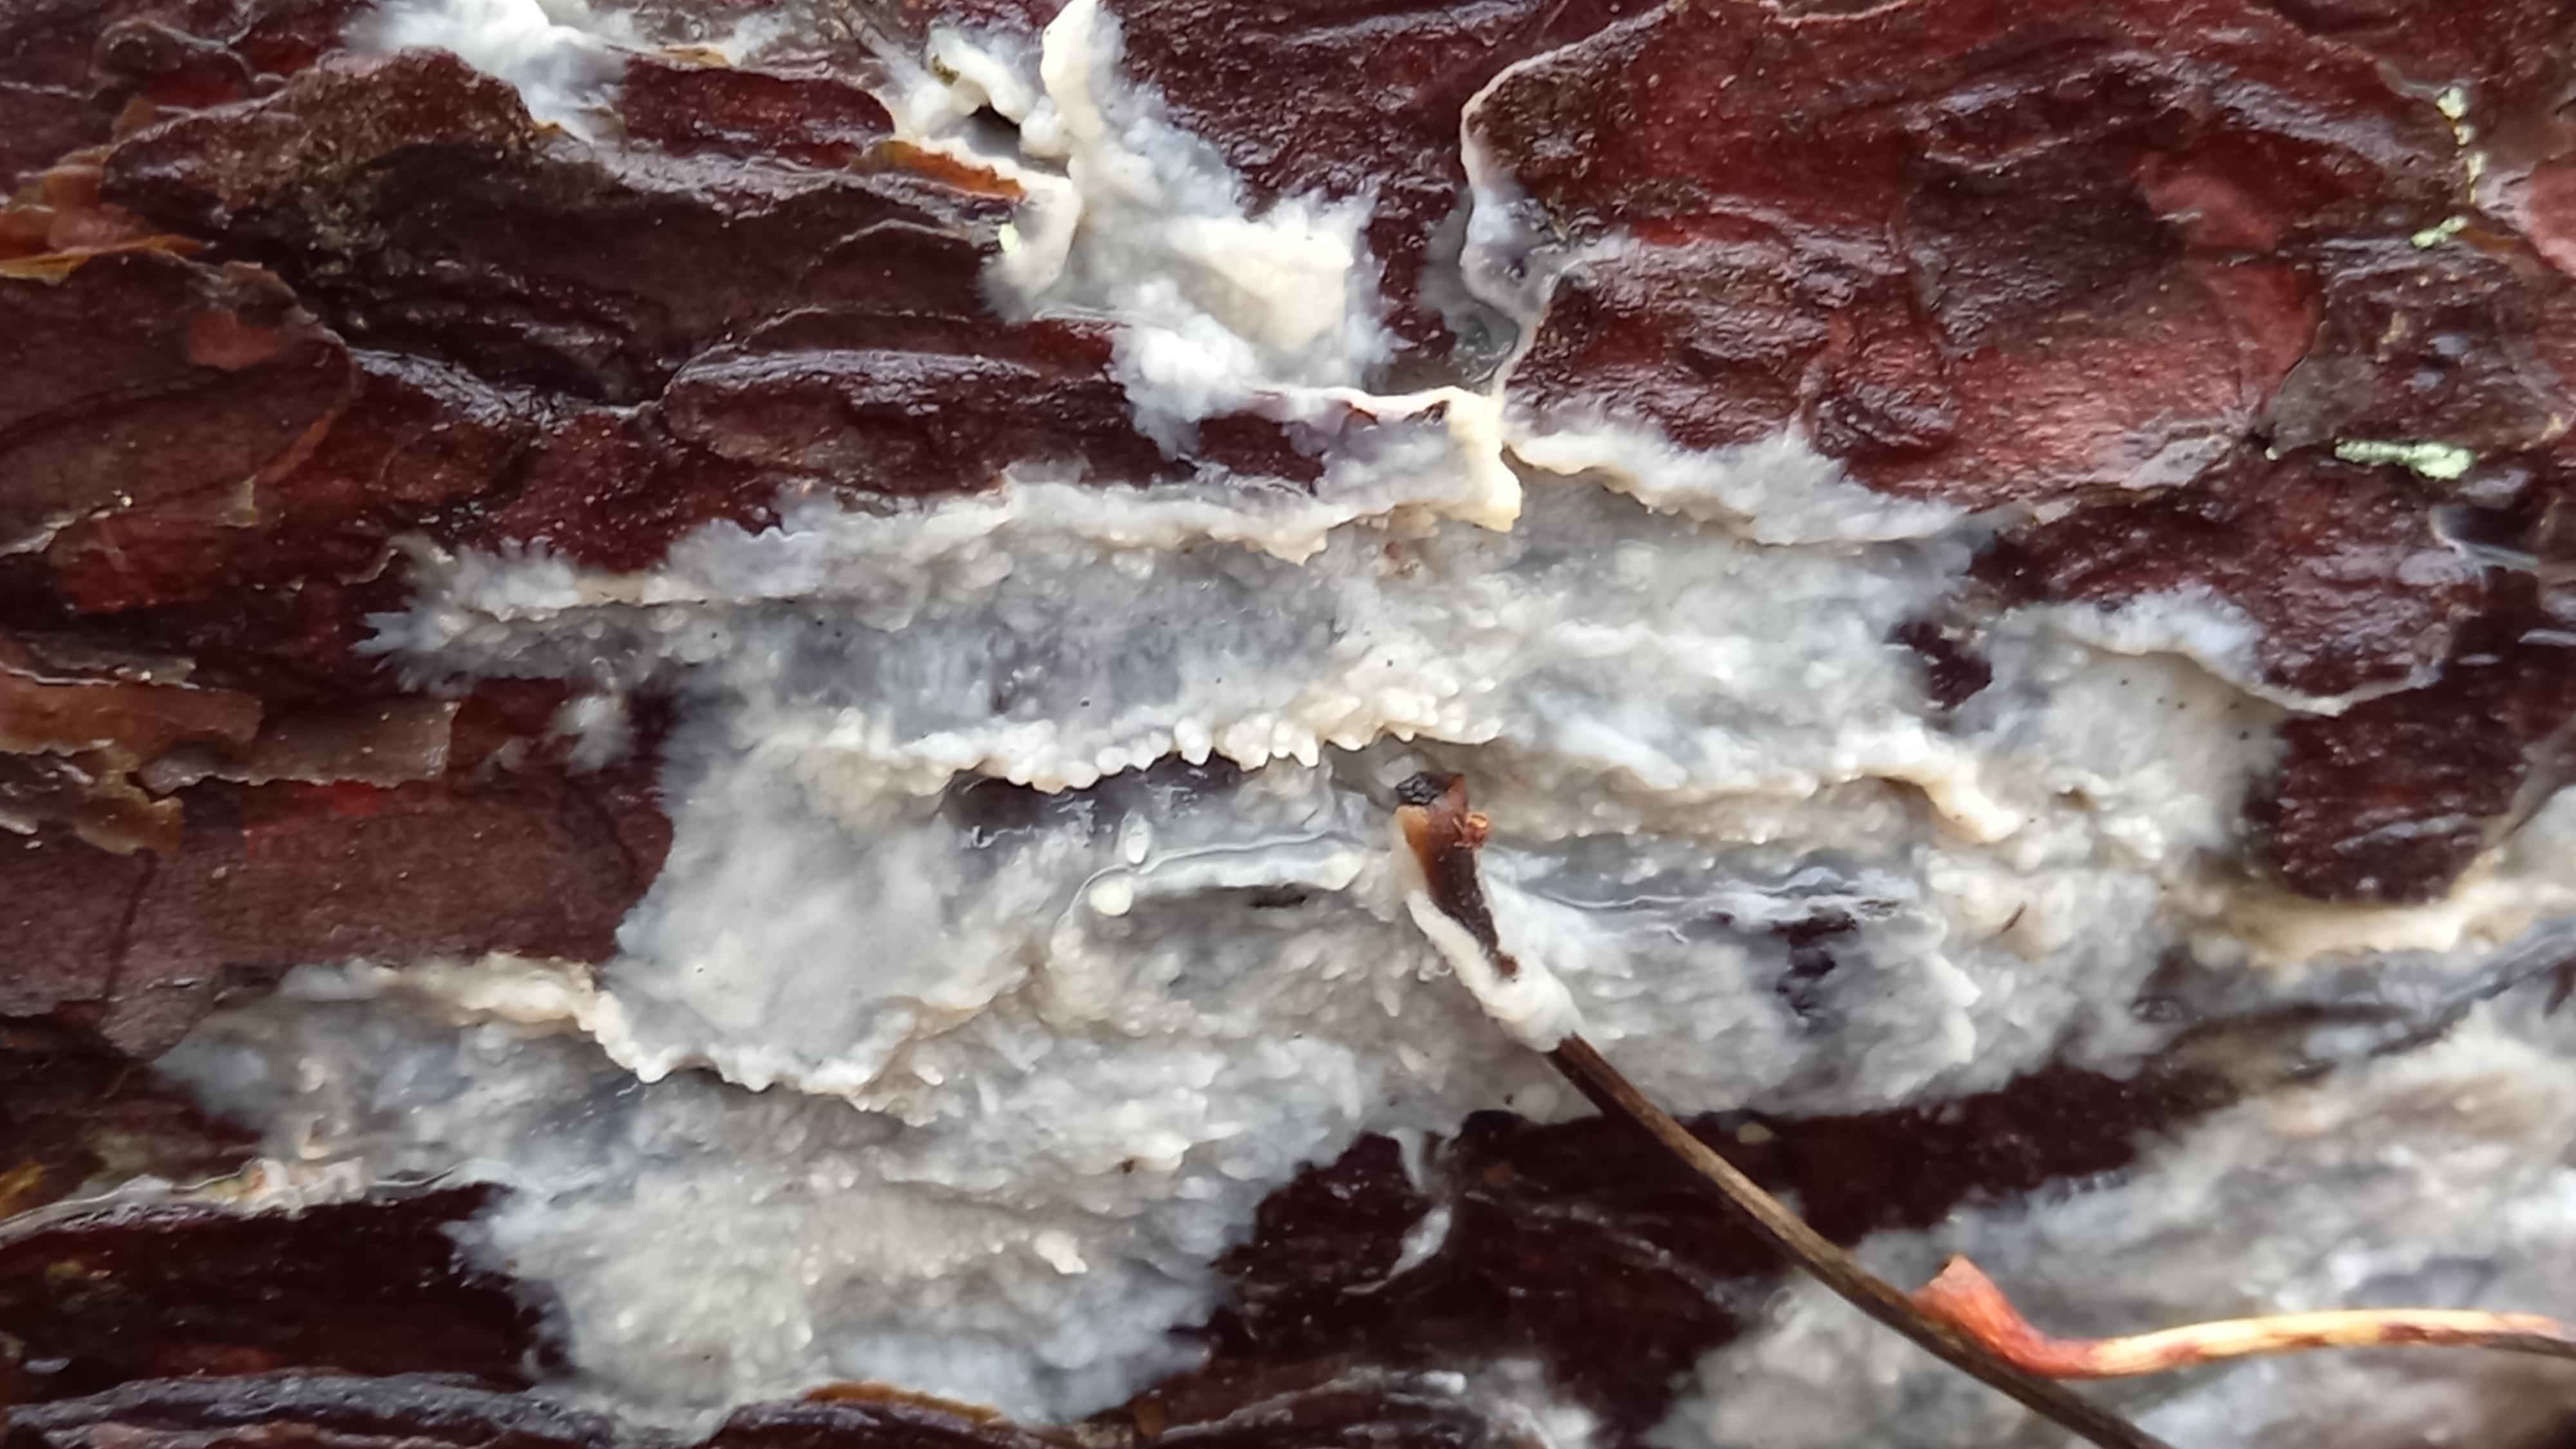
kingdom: Fungi
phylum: Basidiomycota
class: Agaricomycetes
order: Polyporales
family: Phanerochaetaceae
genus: Phlebiopsis
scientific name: Phlebiopsis gigantea
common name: kæmpebarksvamp
